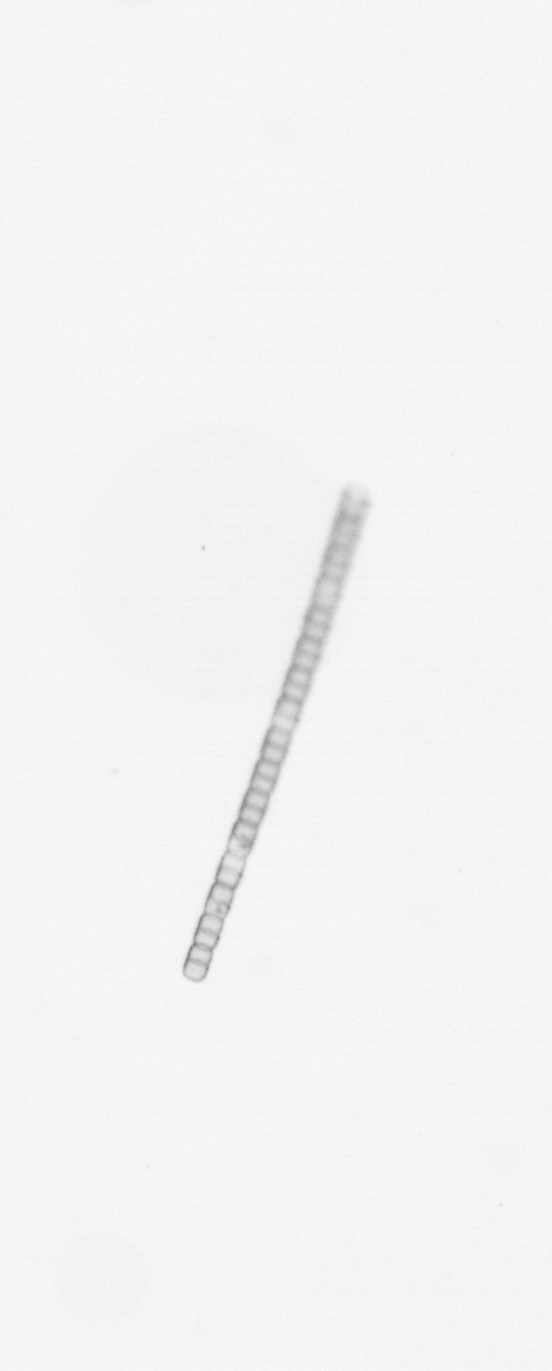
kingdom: Chromista
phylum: Ochrophyta
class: Bacillariophyceae
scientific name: Bacillariophyceae
